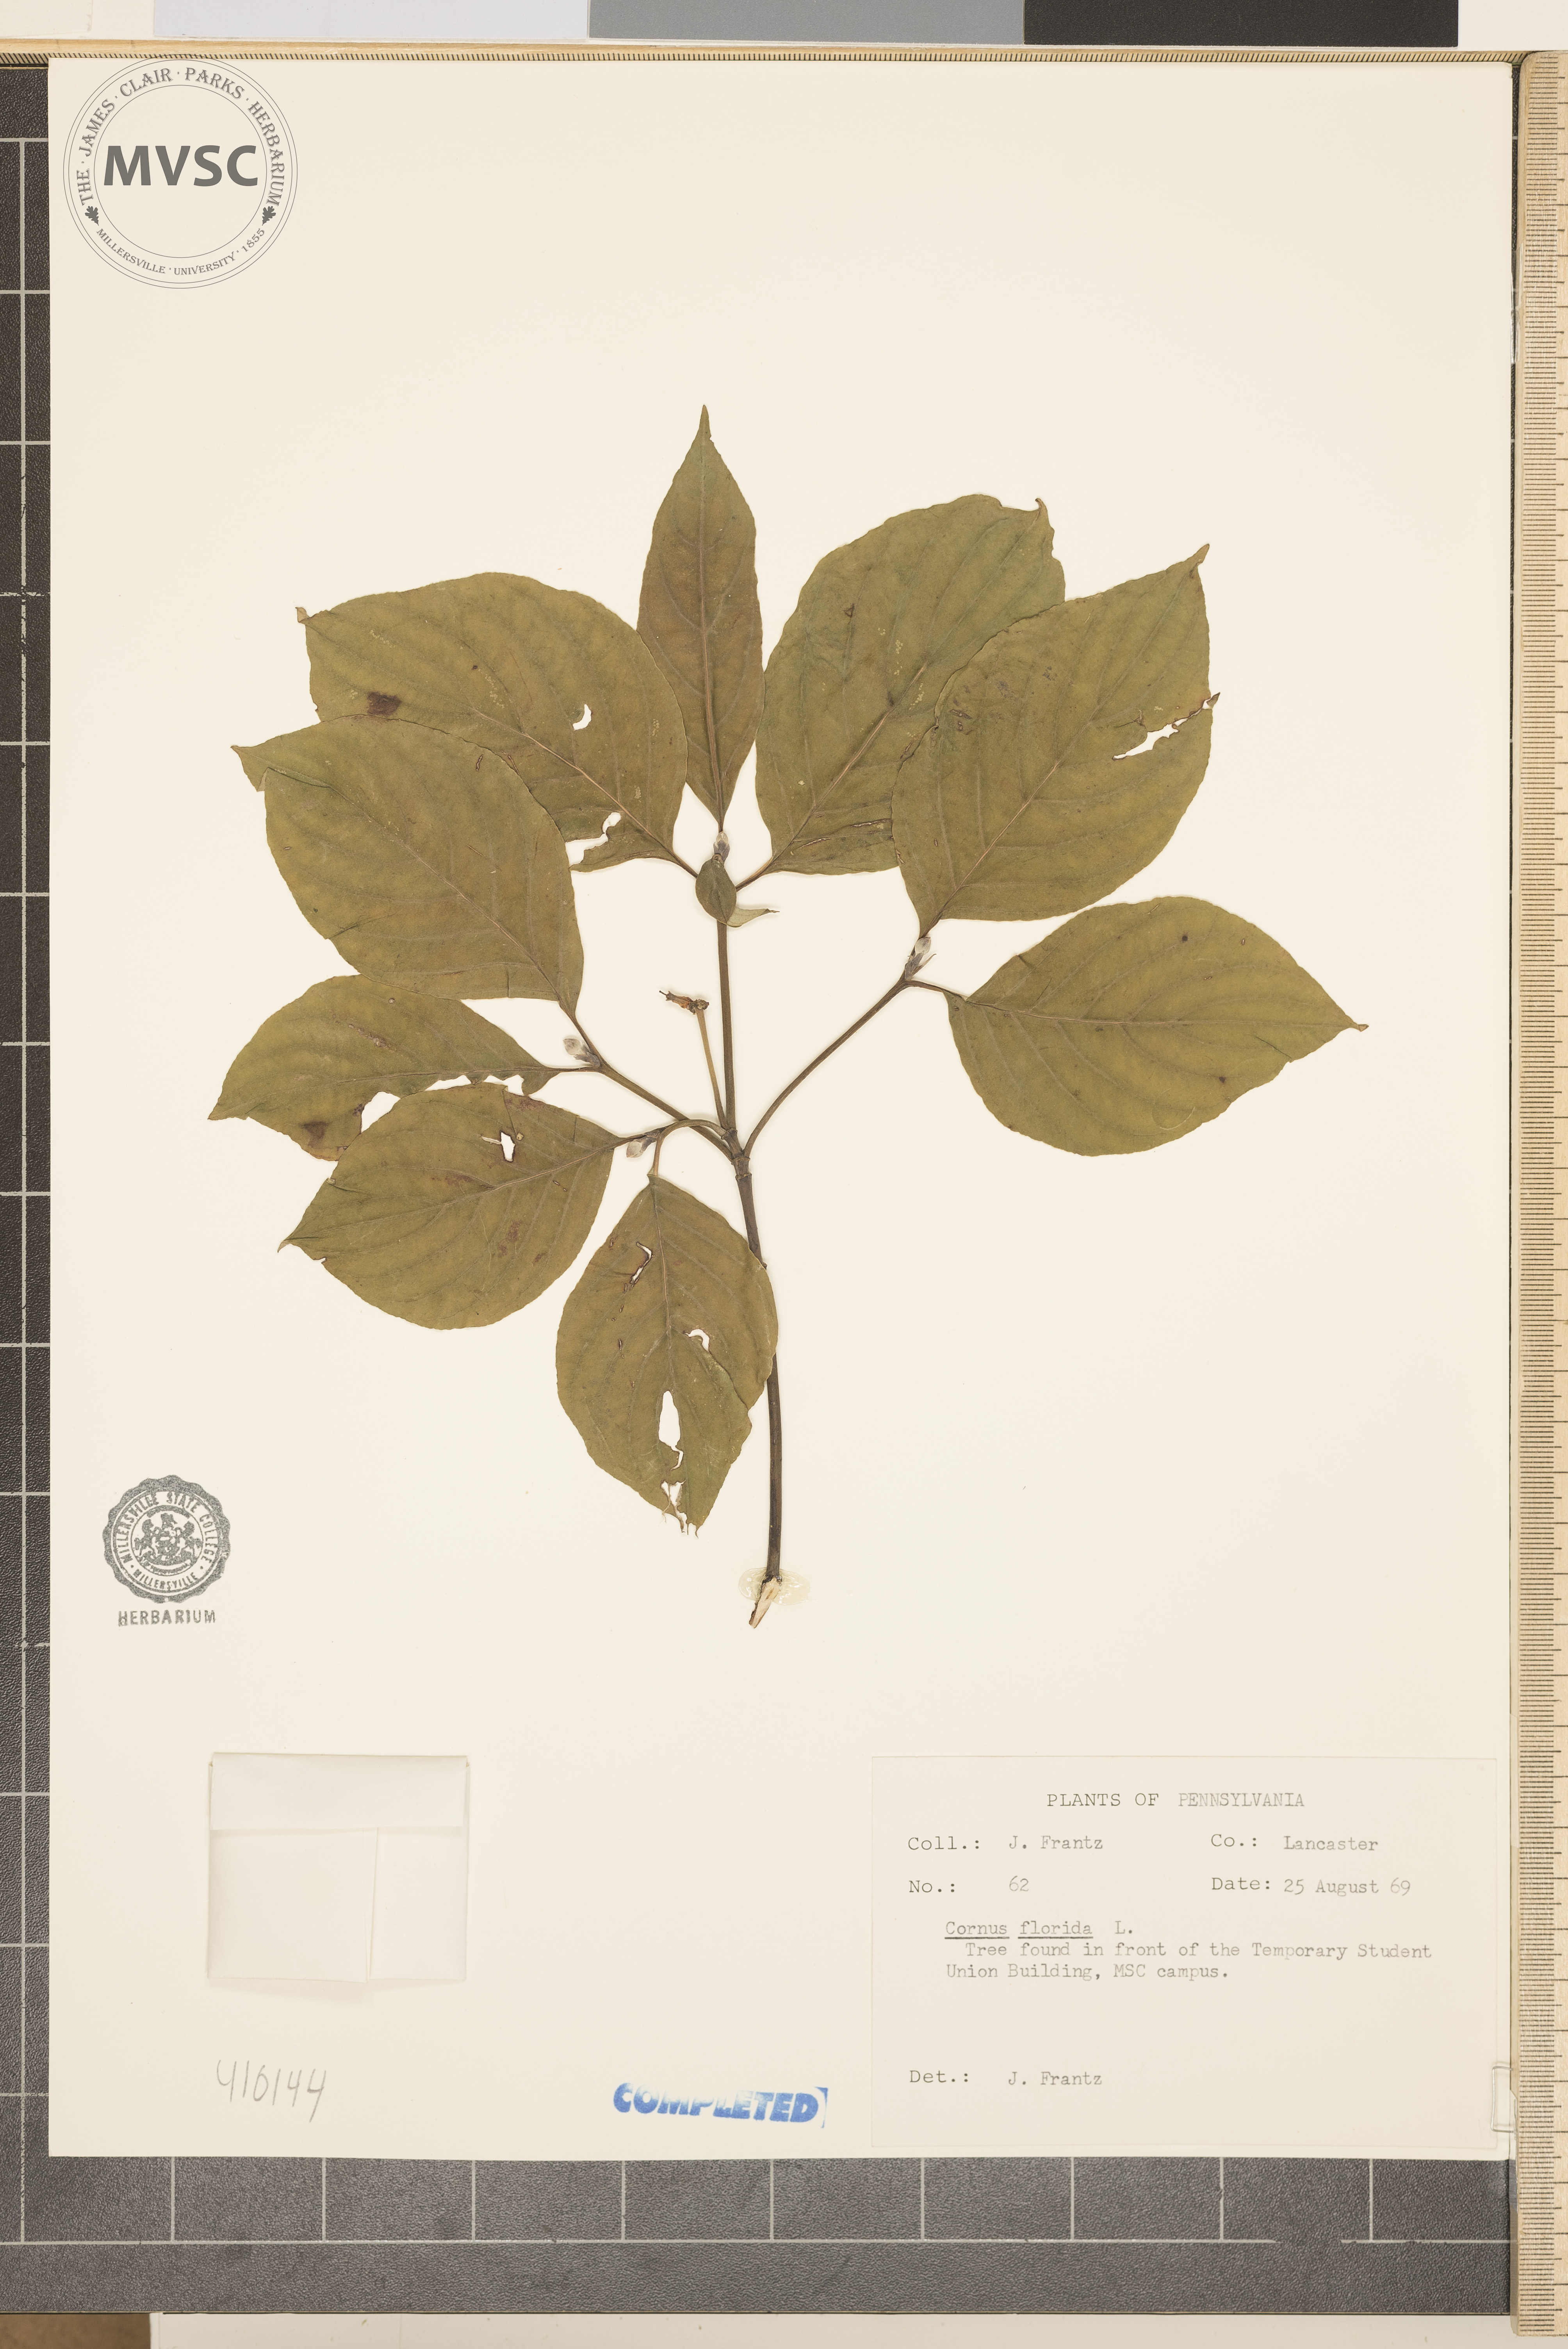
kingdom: Plantae
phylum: Tracheophyta
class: Magnoliopsida
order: Cornales
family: Cornaceae
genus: Cornus
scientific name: Cornus florida
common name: Flowering dogwood
